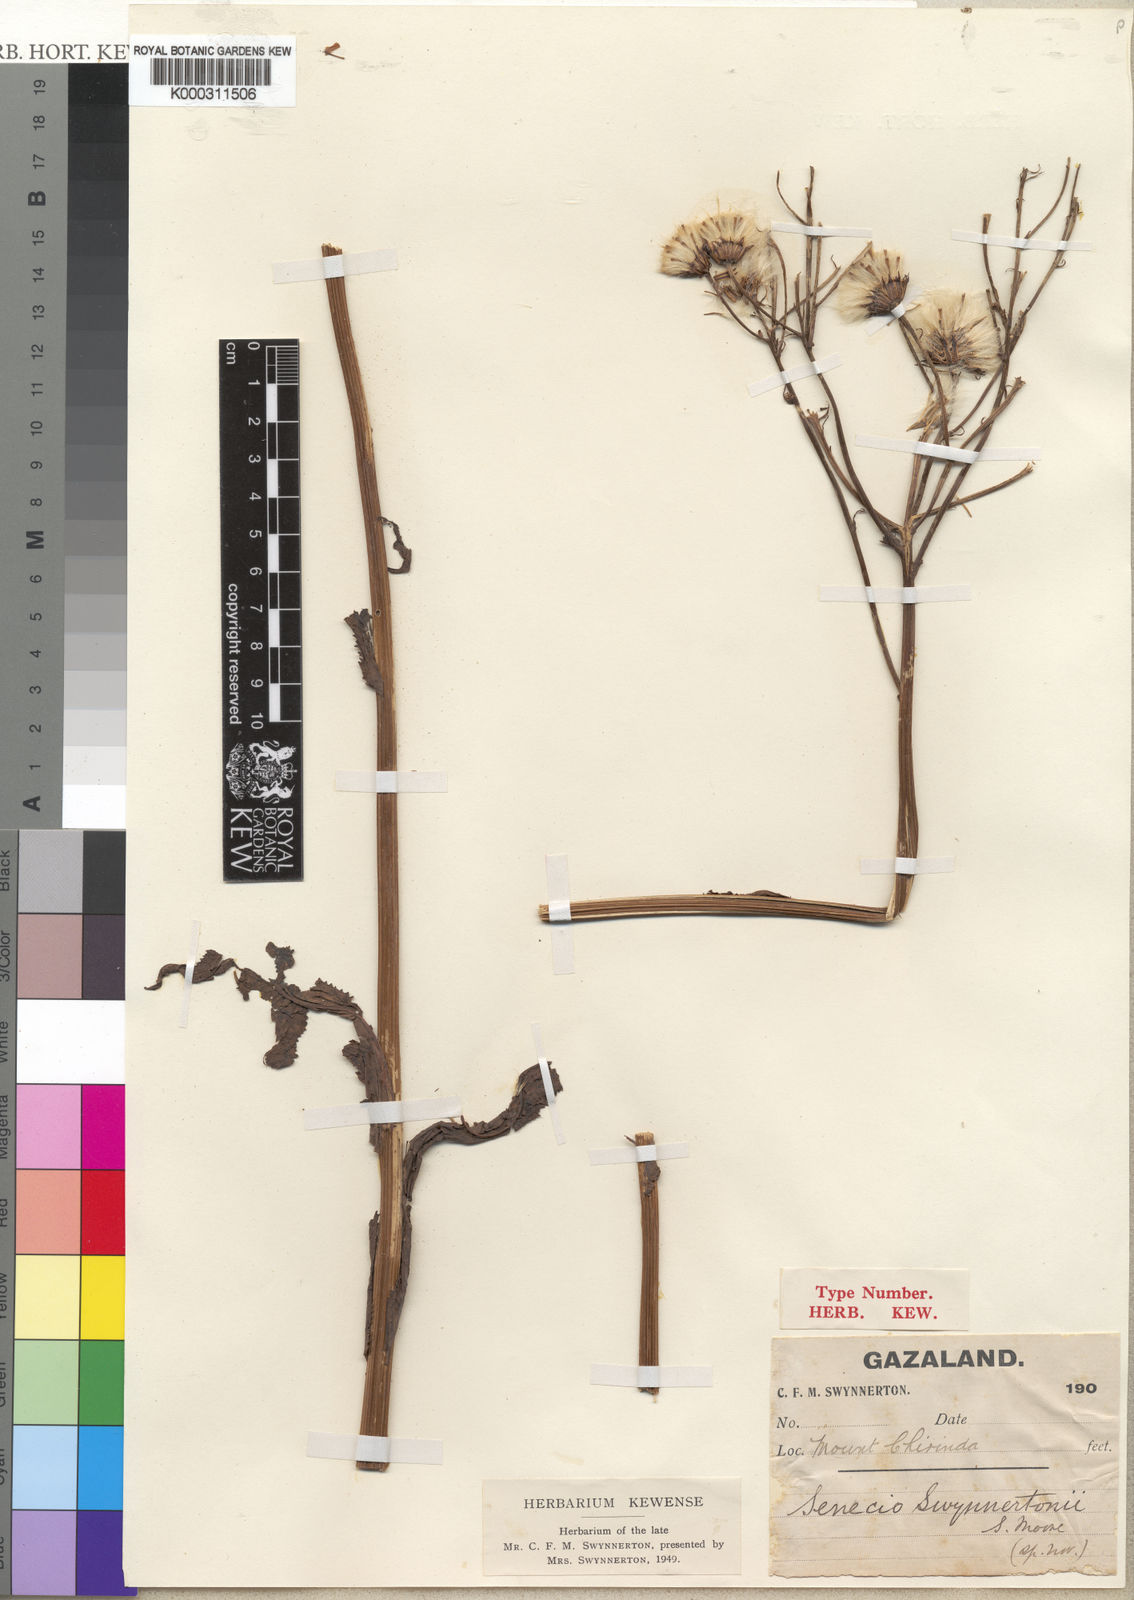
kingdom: Plantae
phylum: Tracheophyta
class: Magnoliopsida
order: Asterales
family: Asteraceae
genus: Senecio
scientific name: Senecio kacondensis
